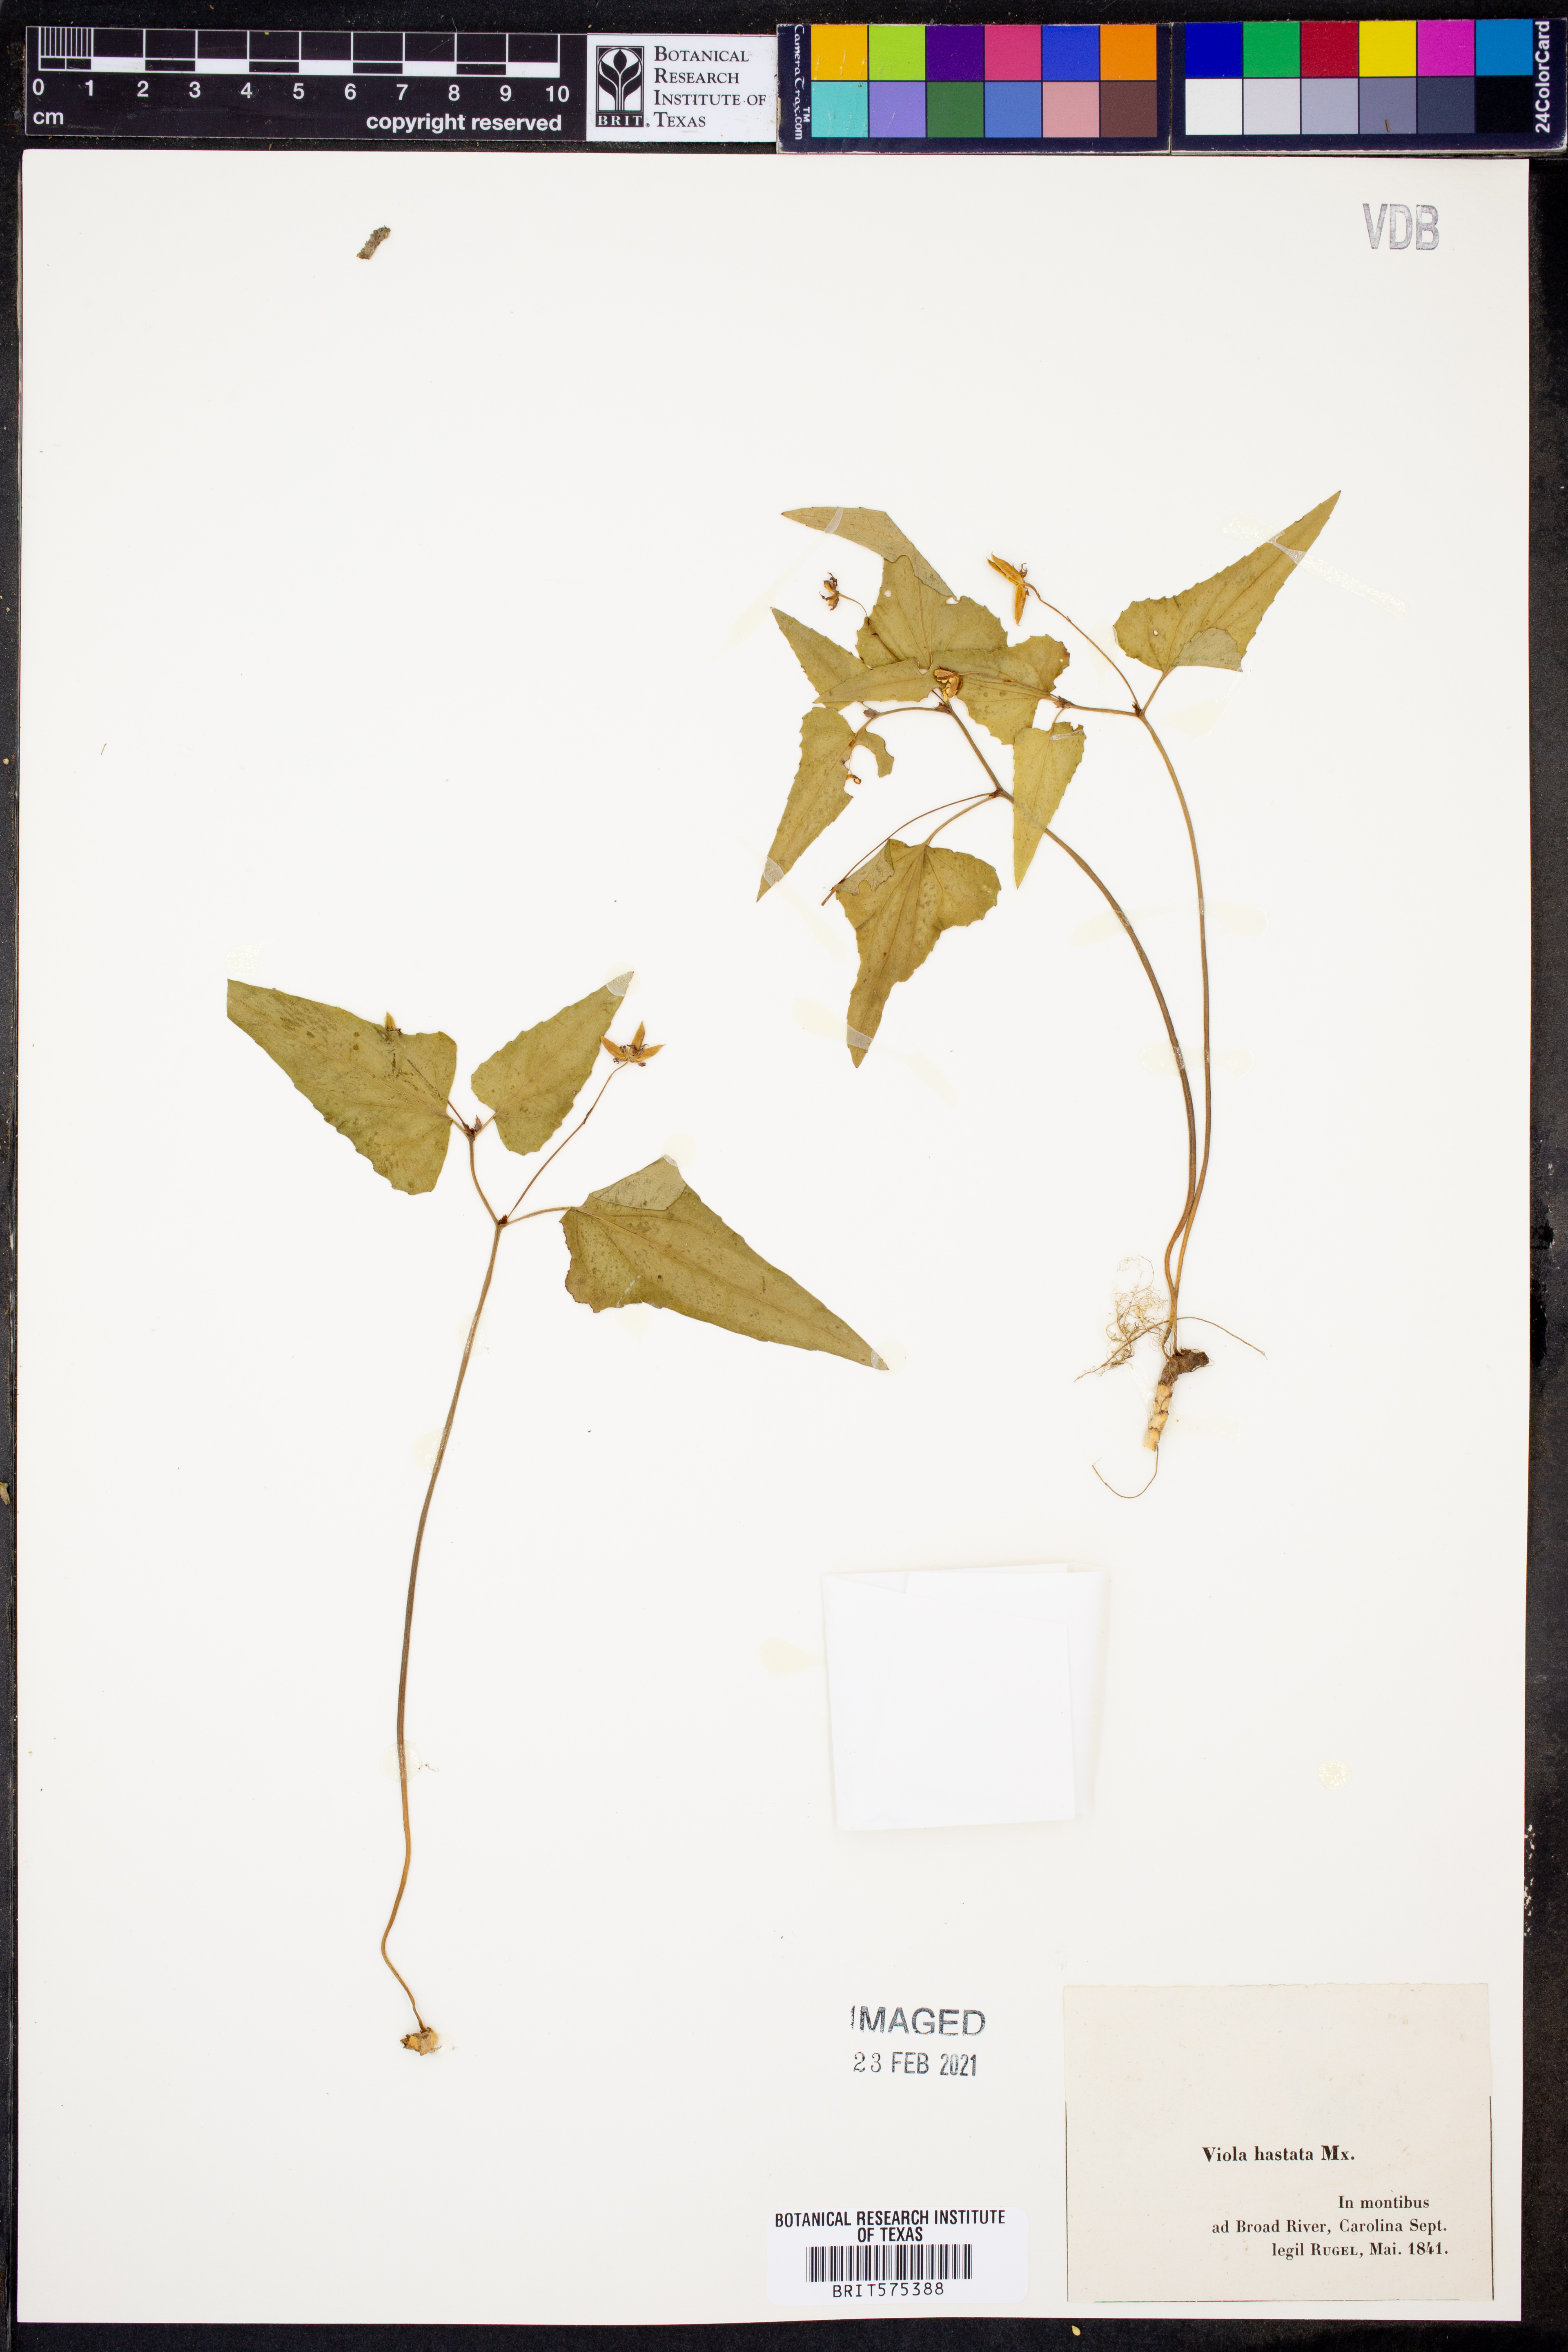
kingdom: Plantae
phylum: Tracheophyta
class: Magnoliopsida
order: Malpighiales
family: Violaceae
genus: Viola
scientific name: Viola hastata
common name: Spear-leaf violet
